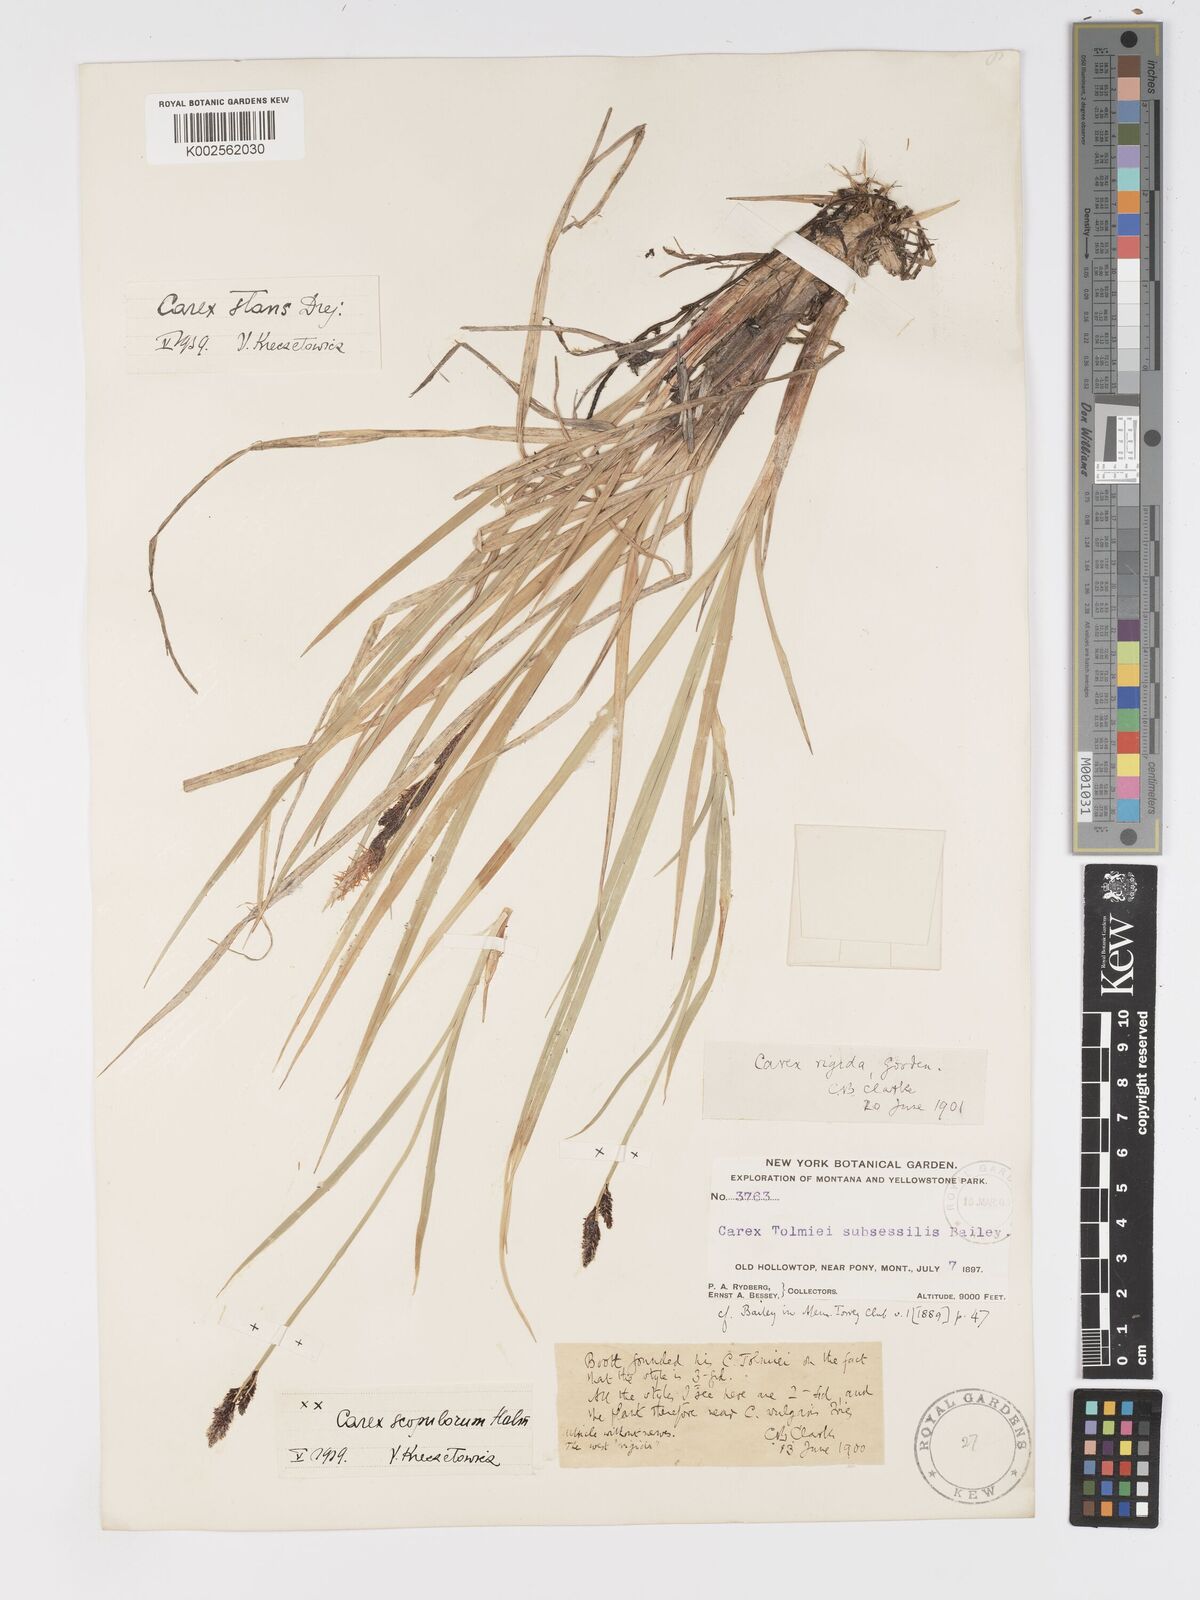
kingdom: Plantae
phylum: Tracheophyta
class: Liliopsida
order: Poales
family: Cyperaceae
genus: Carex
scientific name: Carex scopulorum
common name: Holm's rocky mountain sedge
